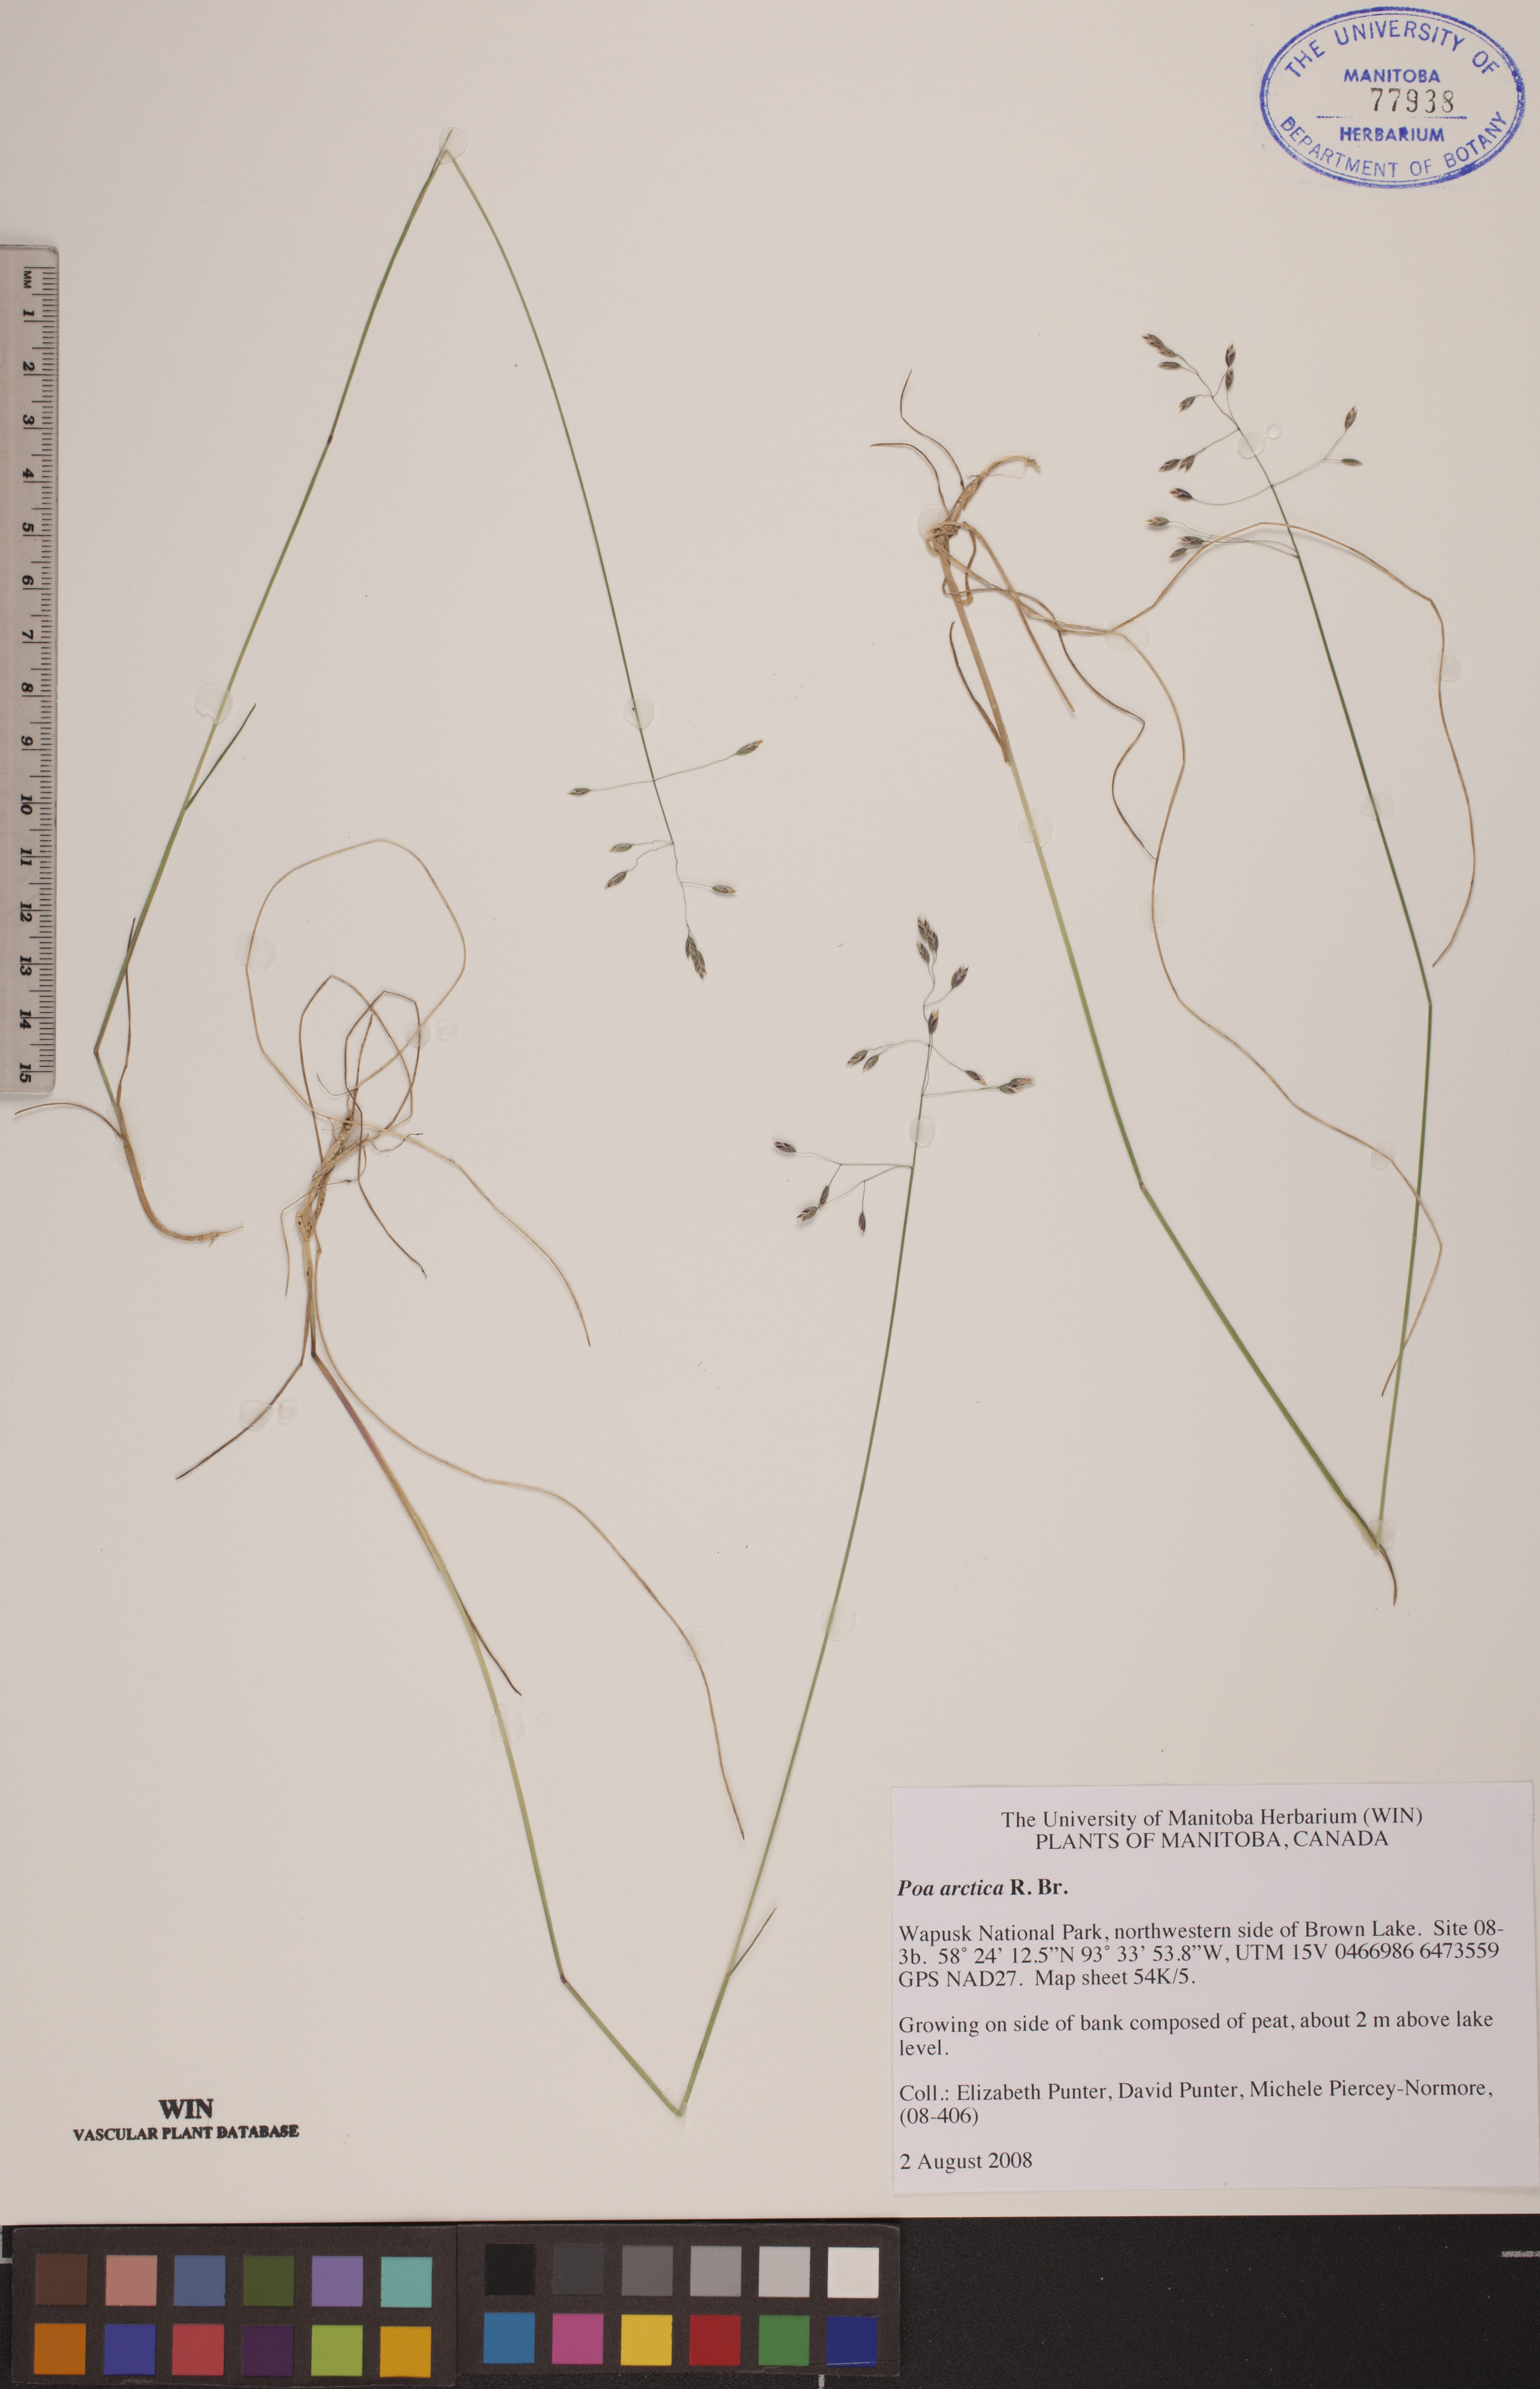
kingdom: Plantae
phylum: Tracheophyta
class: Liliopsida
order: Poales
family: Poaceae
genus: Poa
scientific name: Poa arctica
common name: Arctic bluegrass
